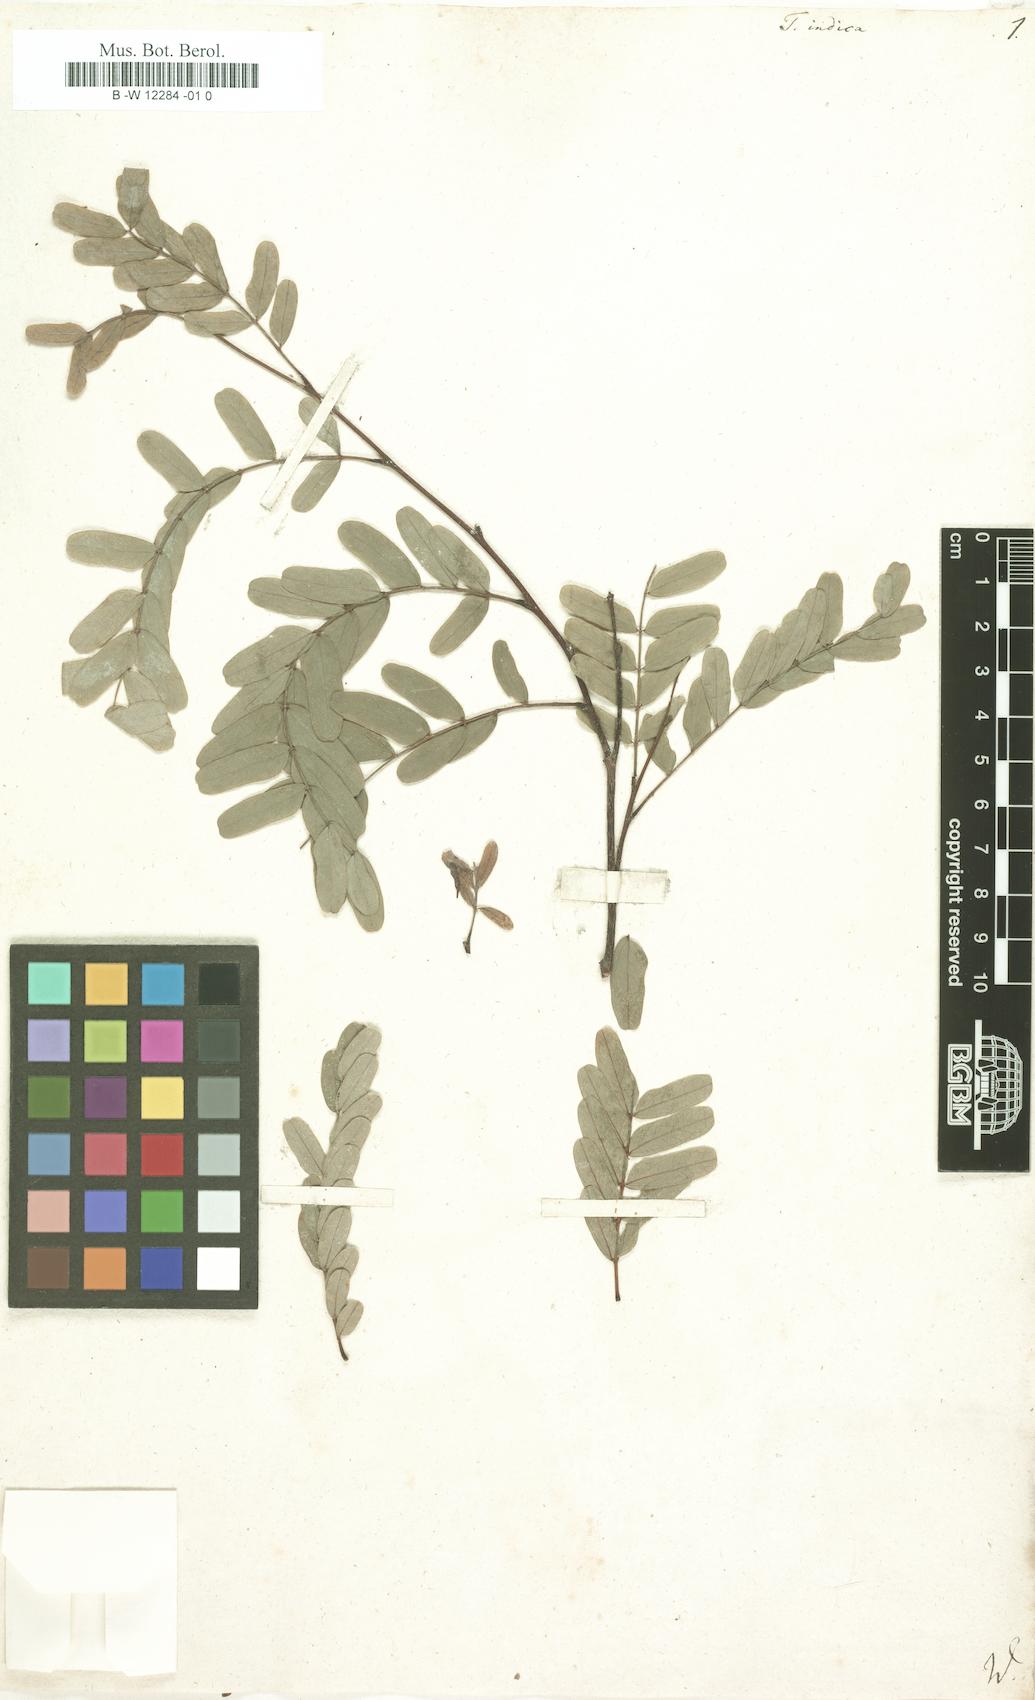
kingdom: Plantae
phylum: Tracheophyta
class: Magnoliopsida
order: Fabales
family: Fabaceae
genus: Tamarindus
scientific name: Tamarindus indica
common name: Tamarind
